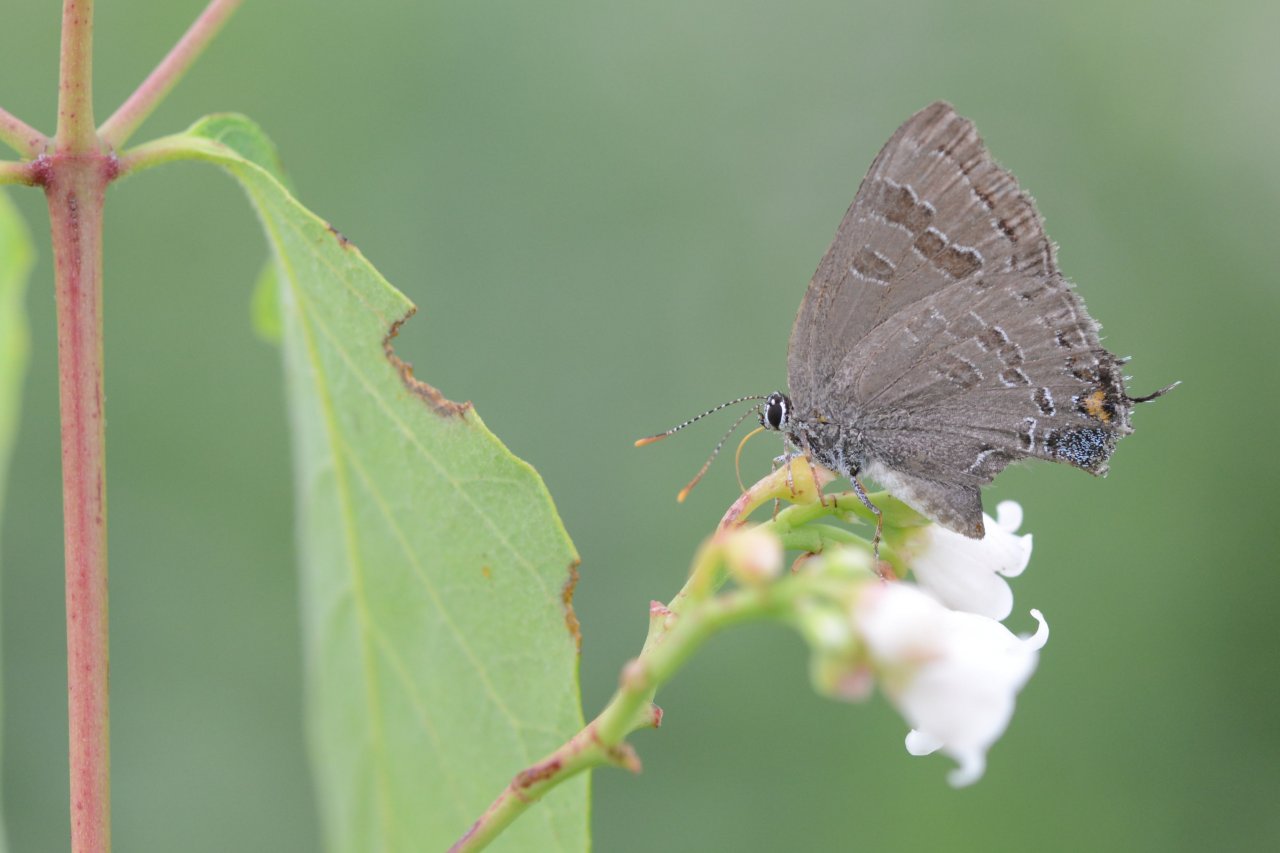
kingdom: Animalia
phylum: Arthropoda
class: Insecta
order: Lepidoptera
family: Lycaenidae
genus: Strymon
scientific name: Strymon caryaevorus
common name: Hickory Hairstreak
